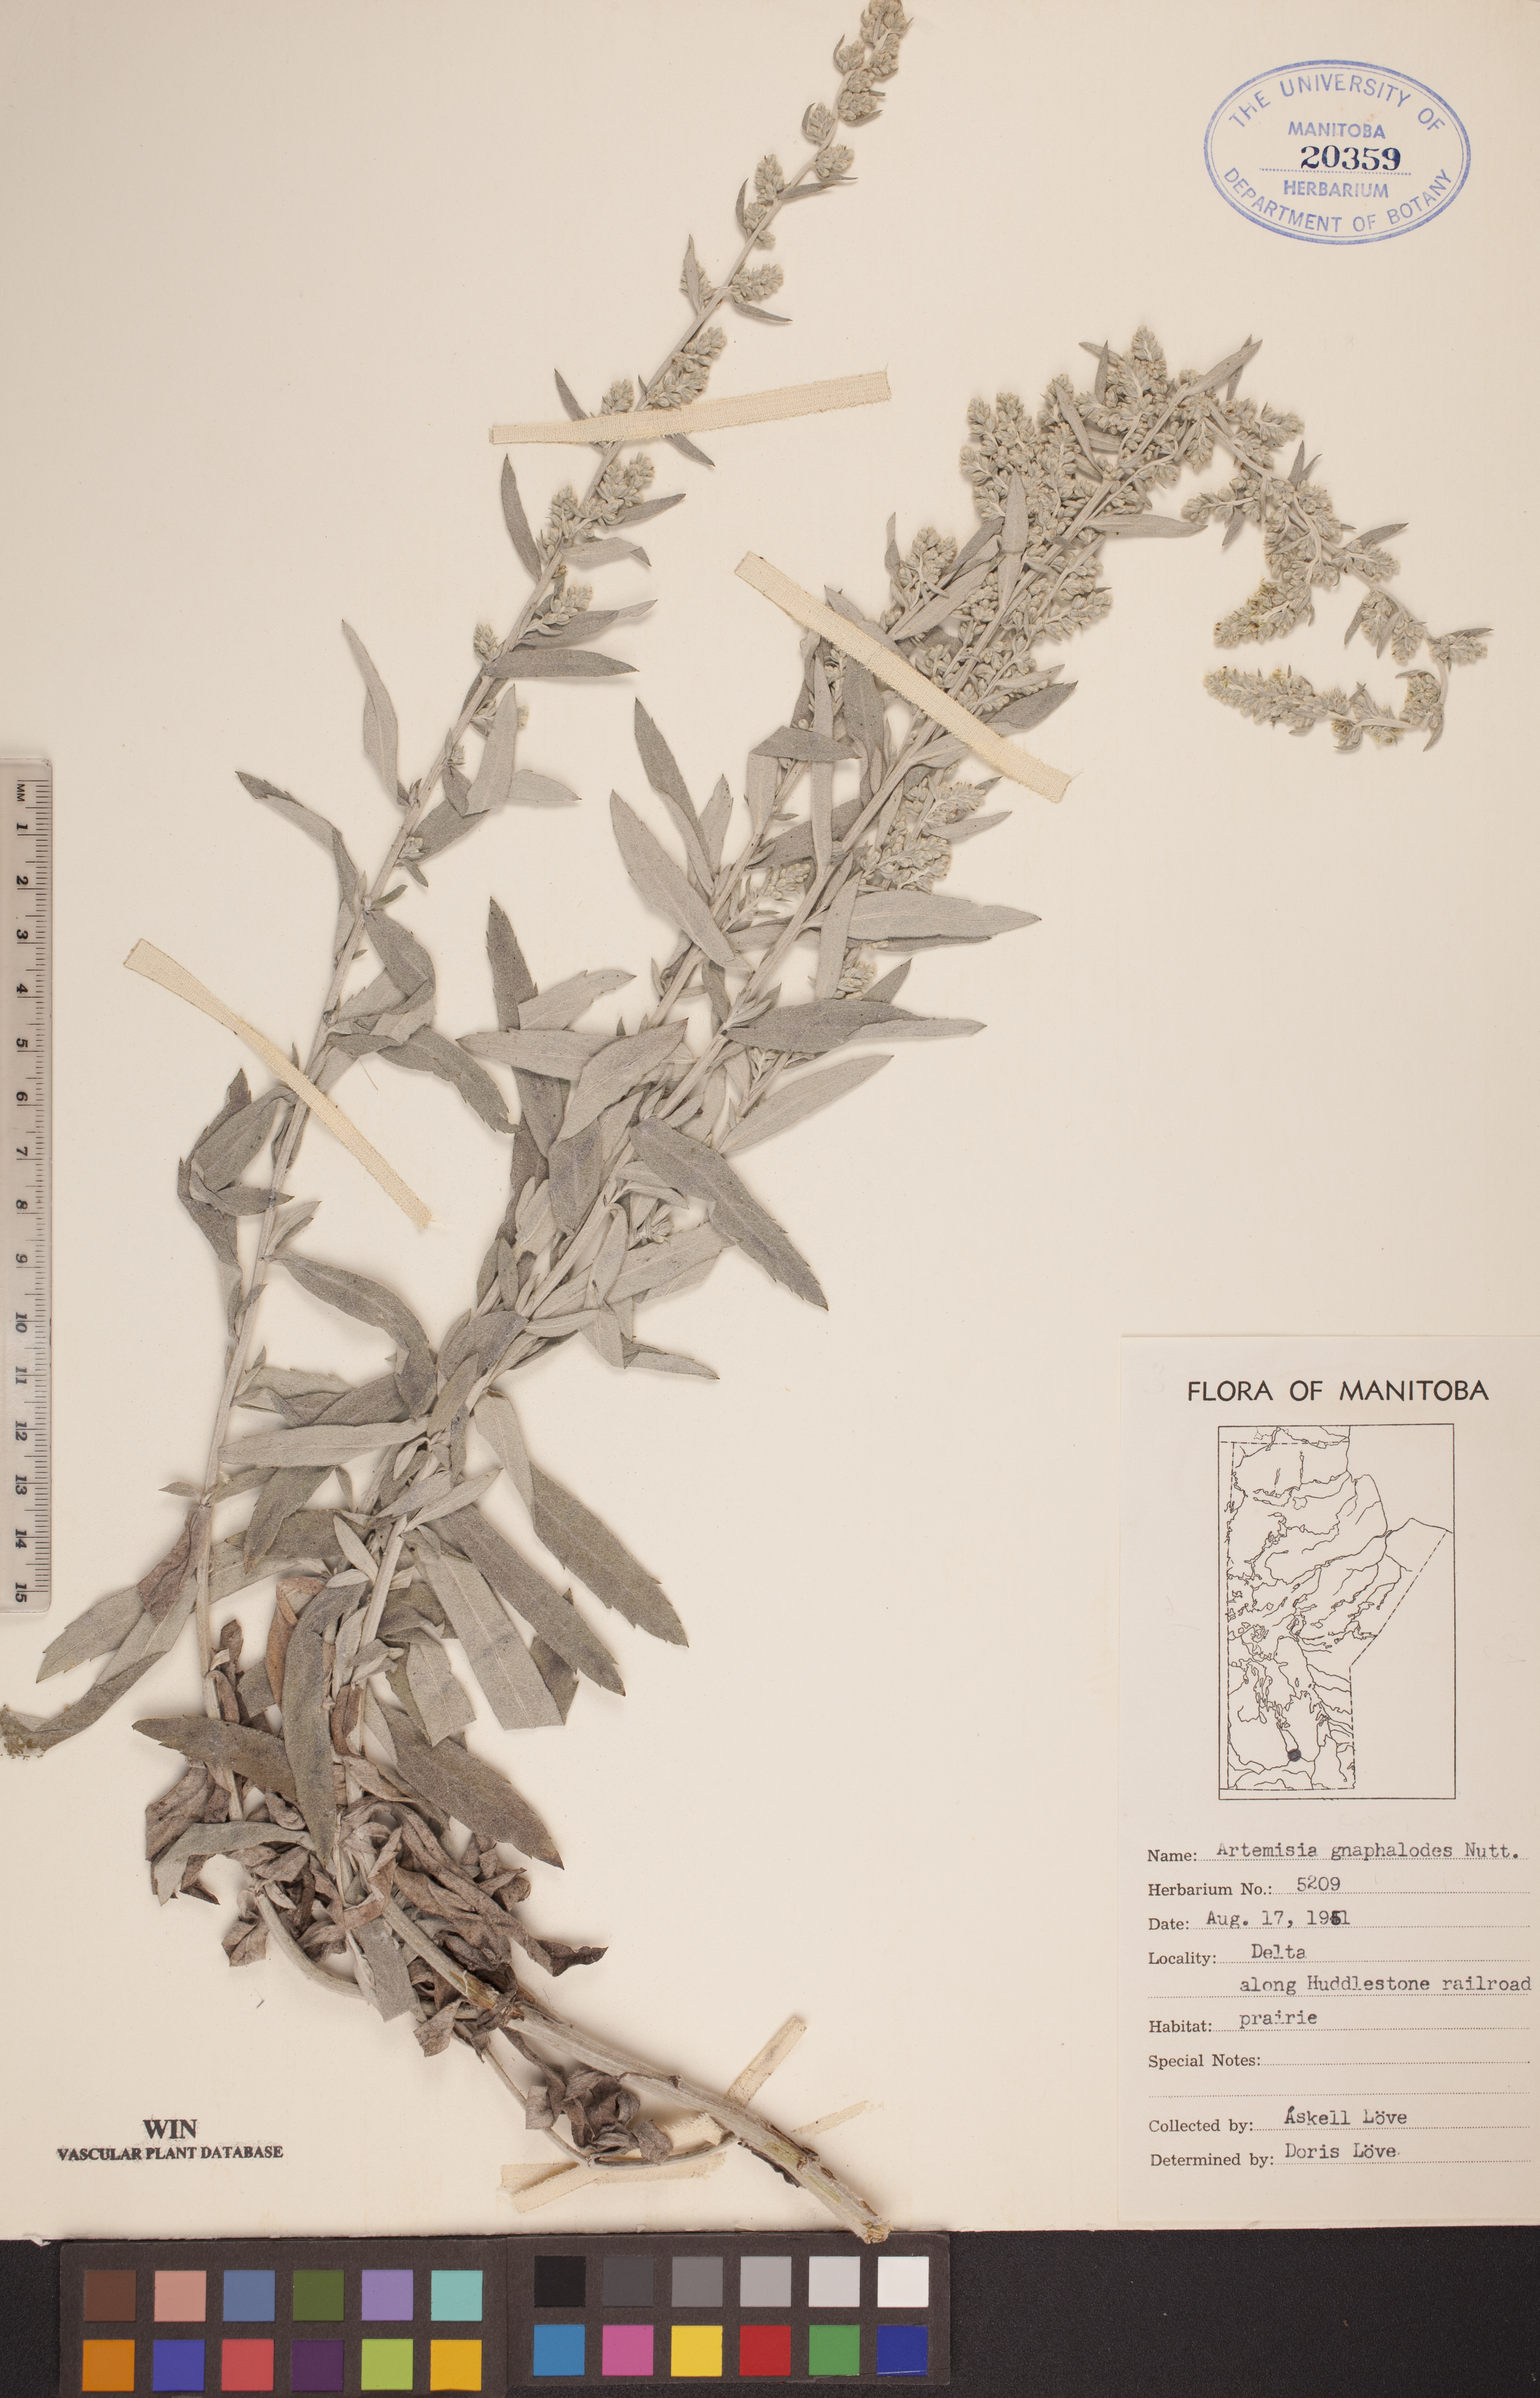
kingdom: Plantae
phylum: Tracheophyta
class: Magnoliopsida
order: Asterales
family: Asteraceae
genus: Artemisia
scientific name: Artemisia ludoviciana
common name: Western mugwort
